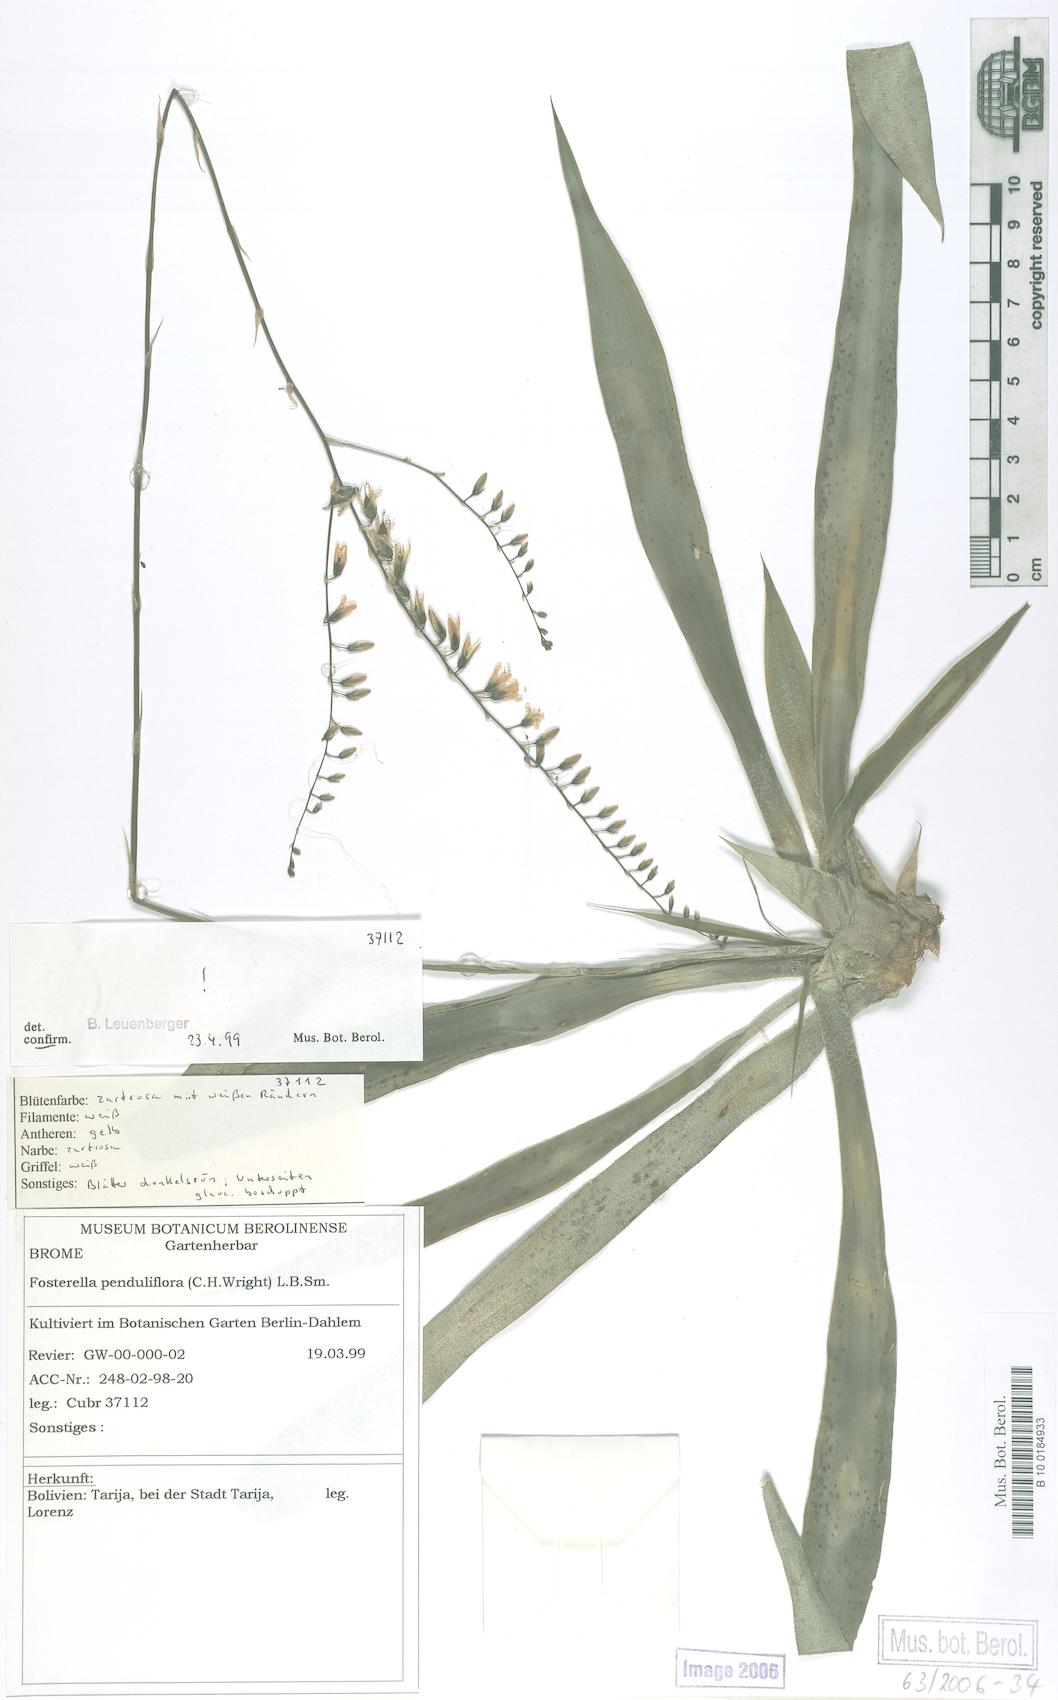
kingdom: Plantae
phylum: Tracheophyta
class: Liliopsida
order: Poales
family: Bromeliaceae
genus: Fosterella
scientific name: Fosterella penduliflora
